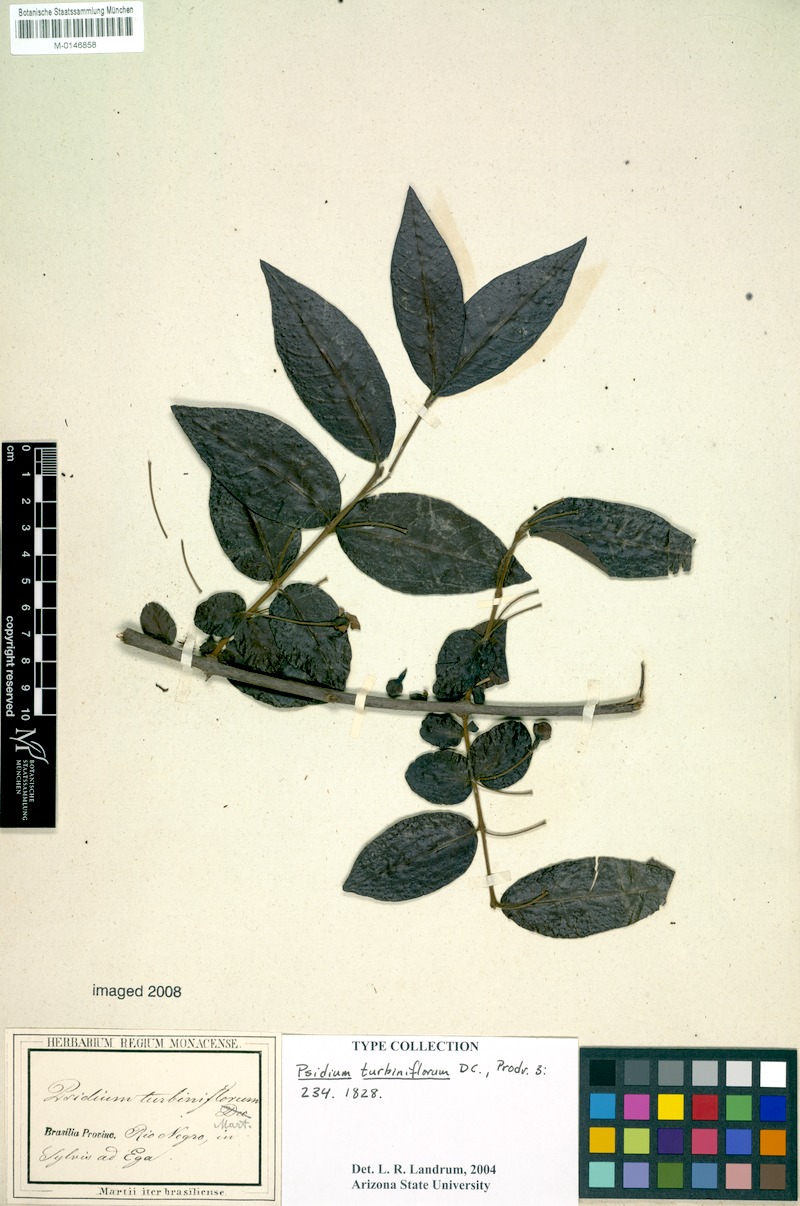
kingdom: Plantae
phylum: Tracheophyta
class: Magnoliopsida
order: Myrtales
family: Myrtaceae
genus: Psidium
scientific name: Psidium striatulum
